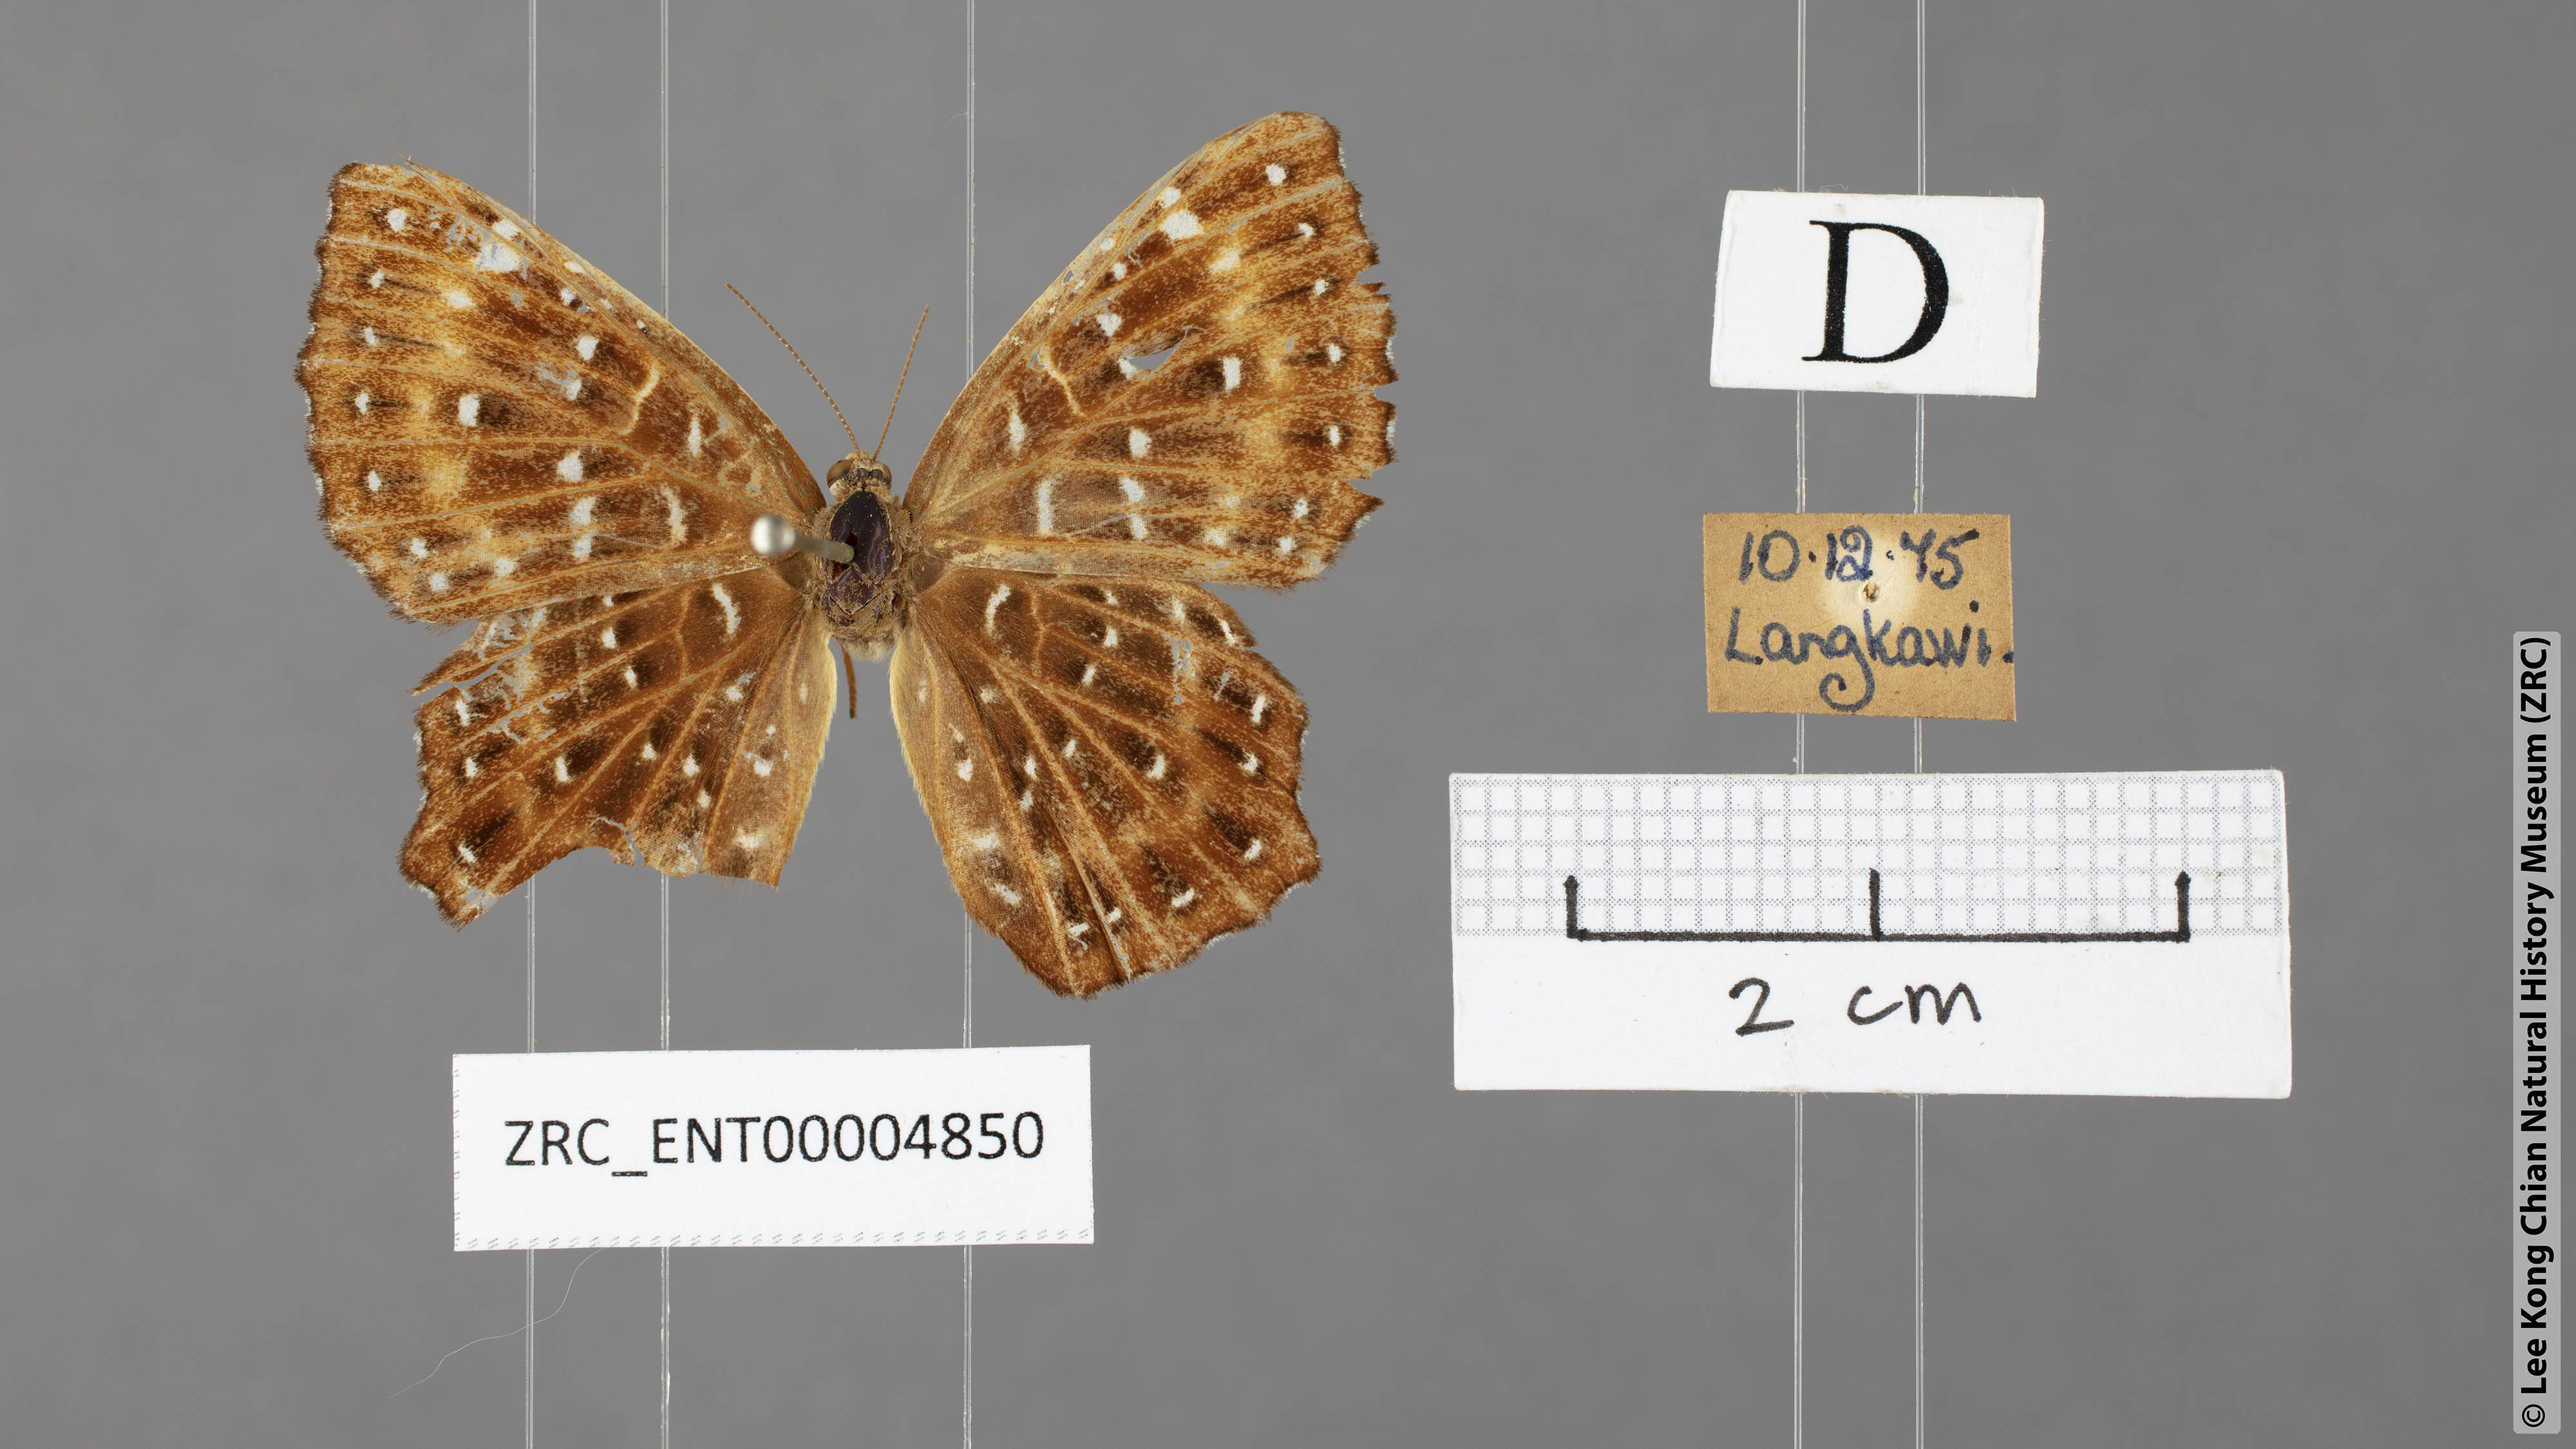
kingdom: Animalia
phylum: Arthropoda
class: Insecta
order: Lepidoptera
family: Riodinidae
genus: Zemeros
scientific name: Zemeros flegyas
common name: Punchinello
